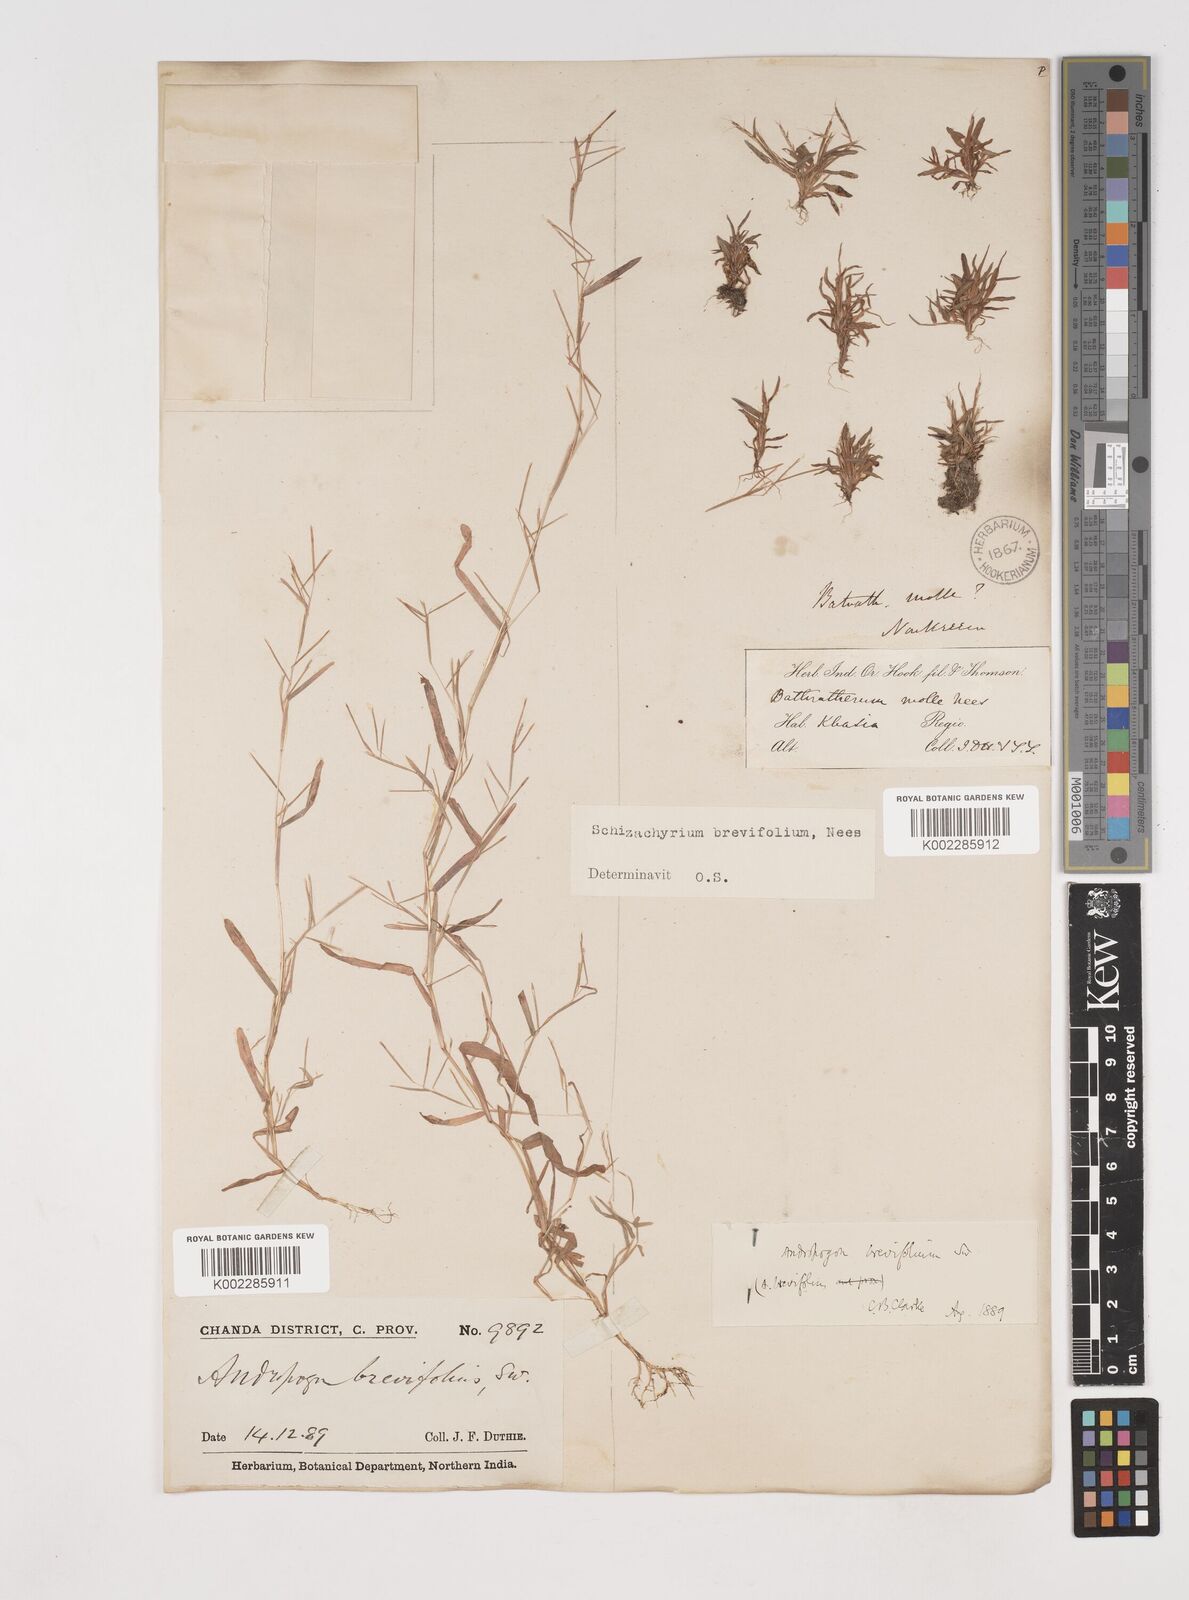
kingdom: Plantae
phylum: Tracheophyta
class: Liliopsida
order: Poales
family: Poaceae
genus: Schizachyrium
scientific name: Schizachyrium brevifolium
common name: Serillo dulce
